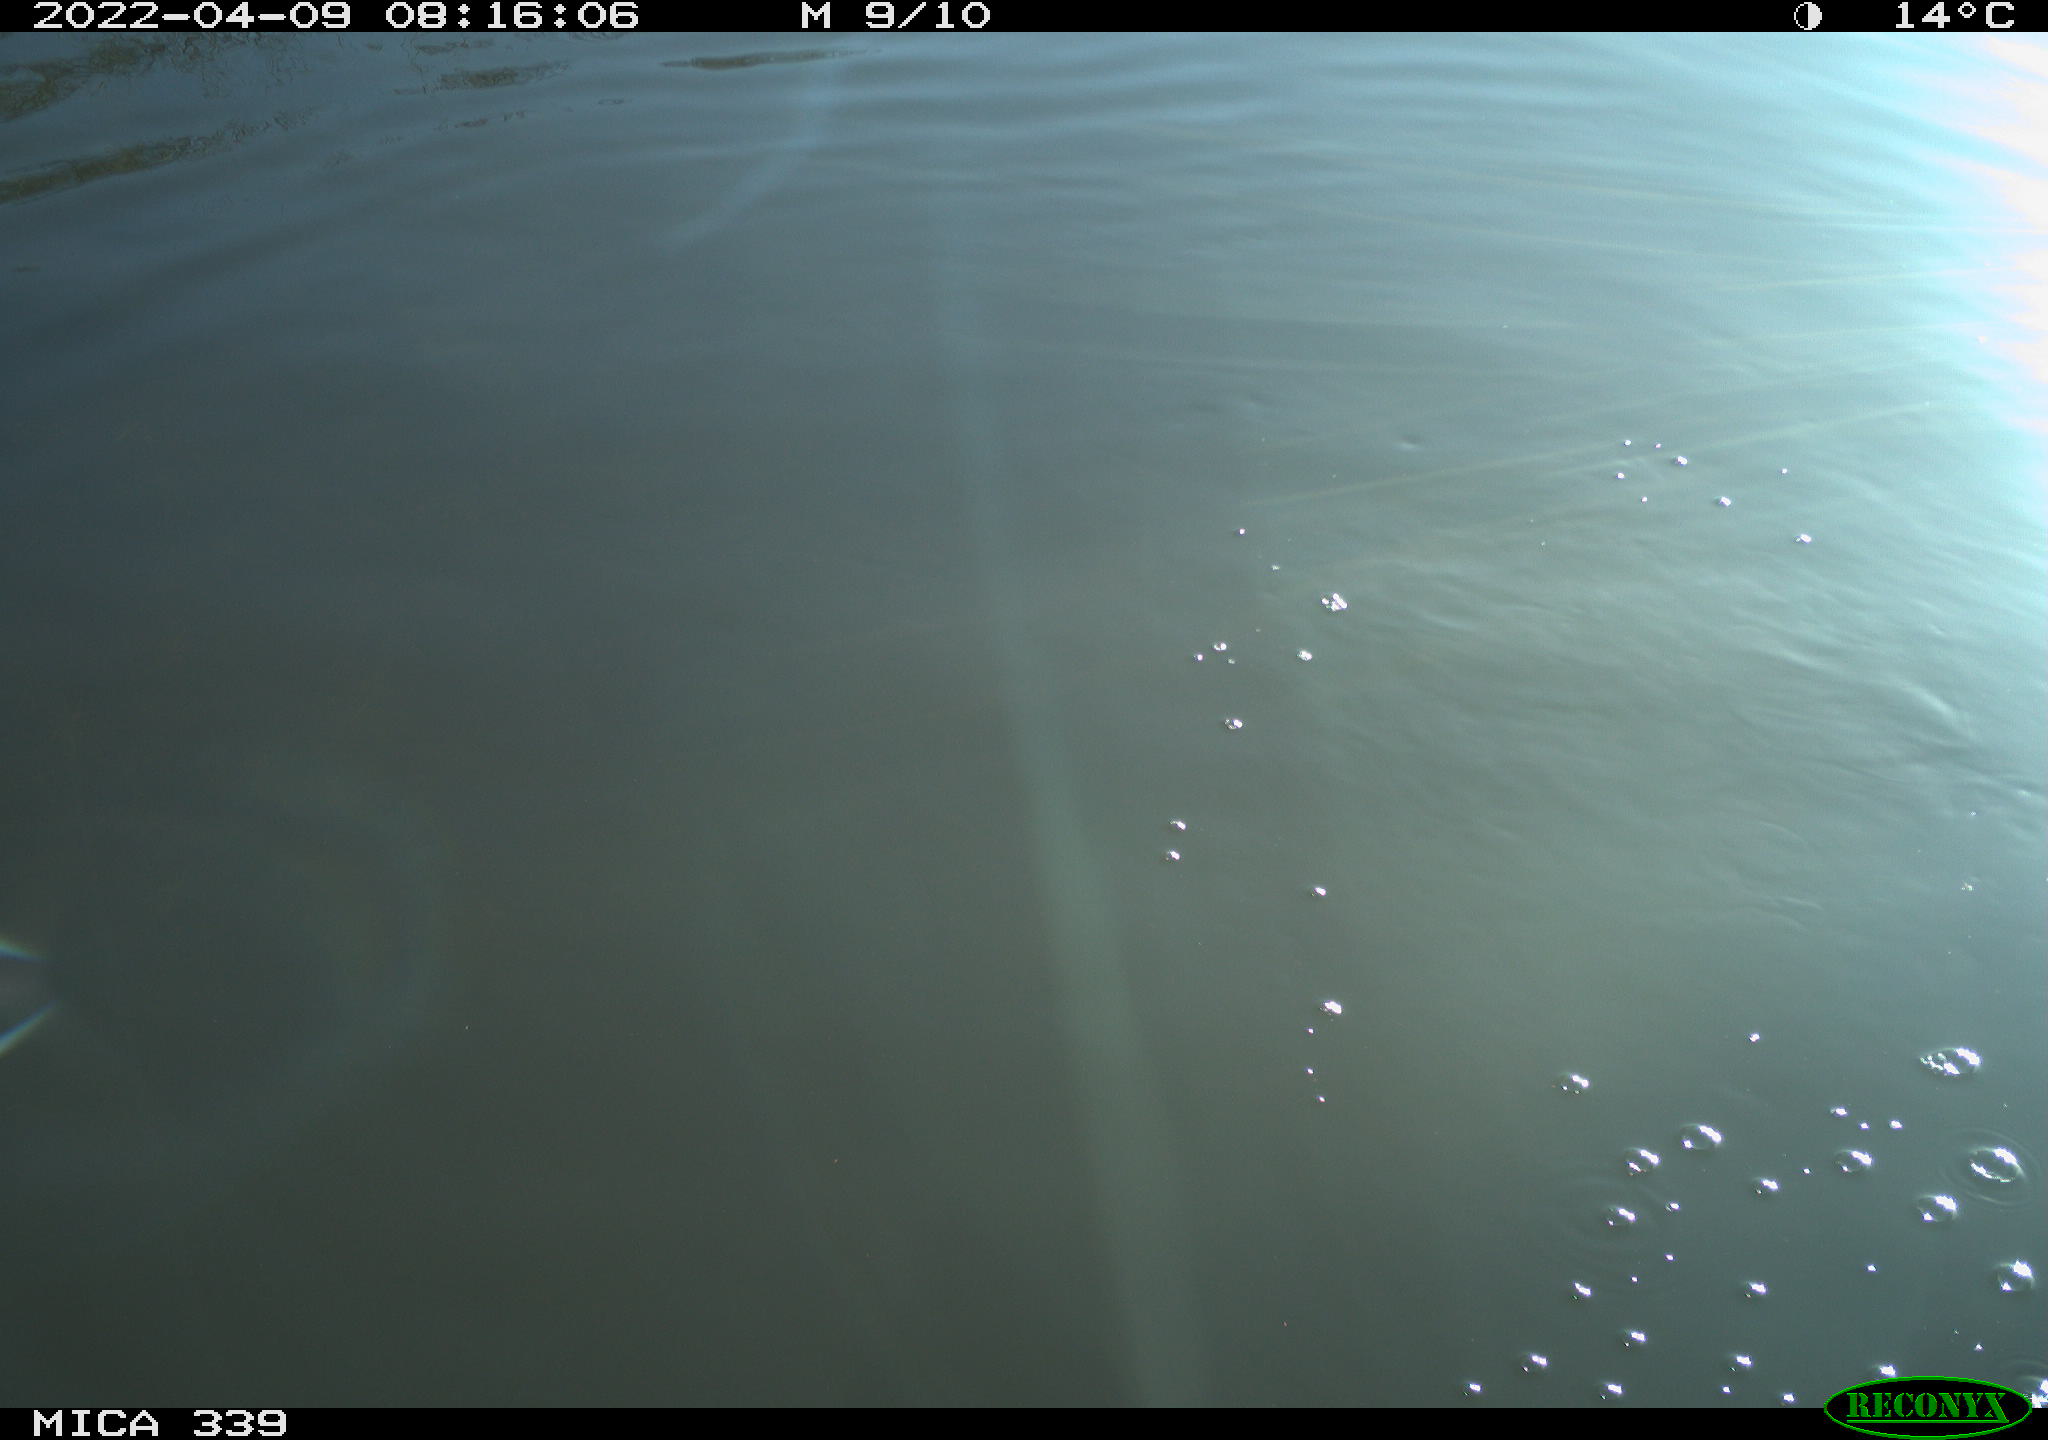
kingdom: Animalia
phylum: Chordata
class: Aves
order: Suliformes
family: Phalacrocoracidae
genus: Phalacrocorax
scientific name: Phalacrocorax carbo
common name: Great cormorant
